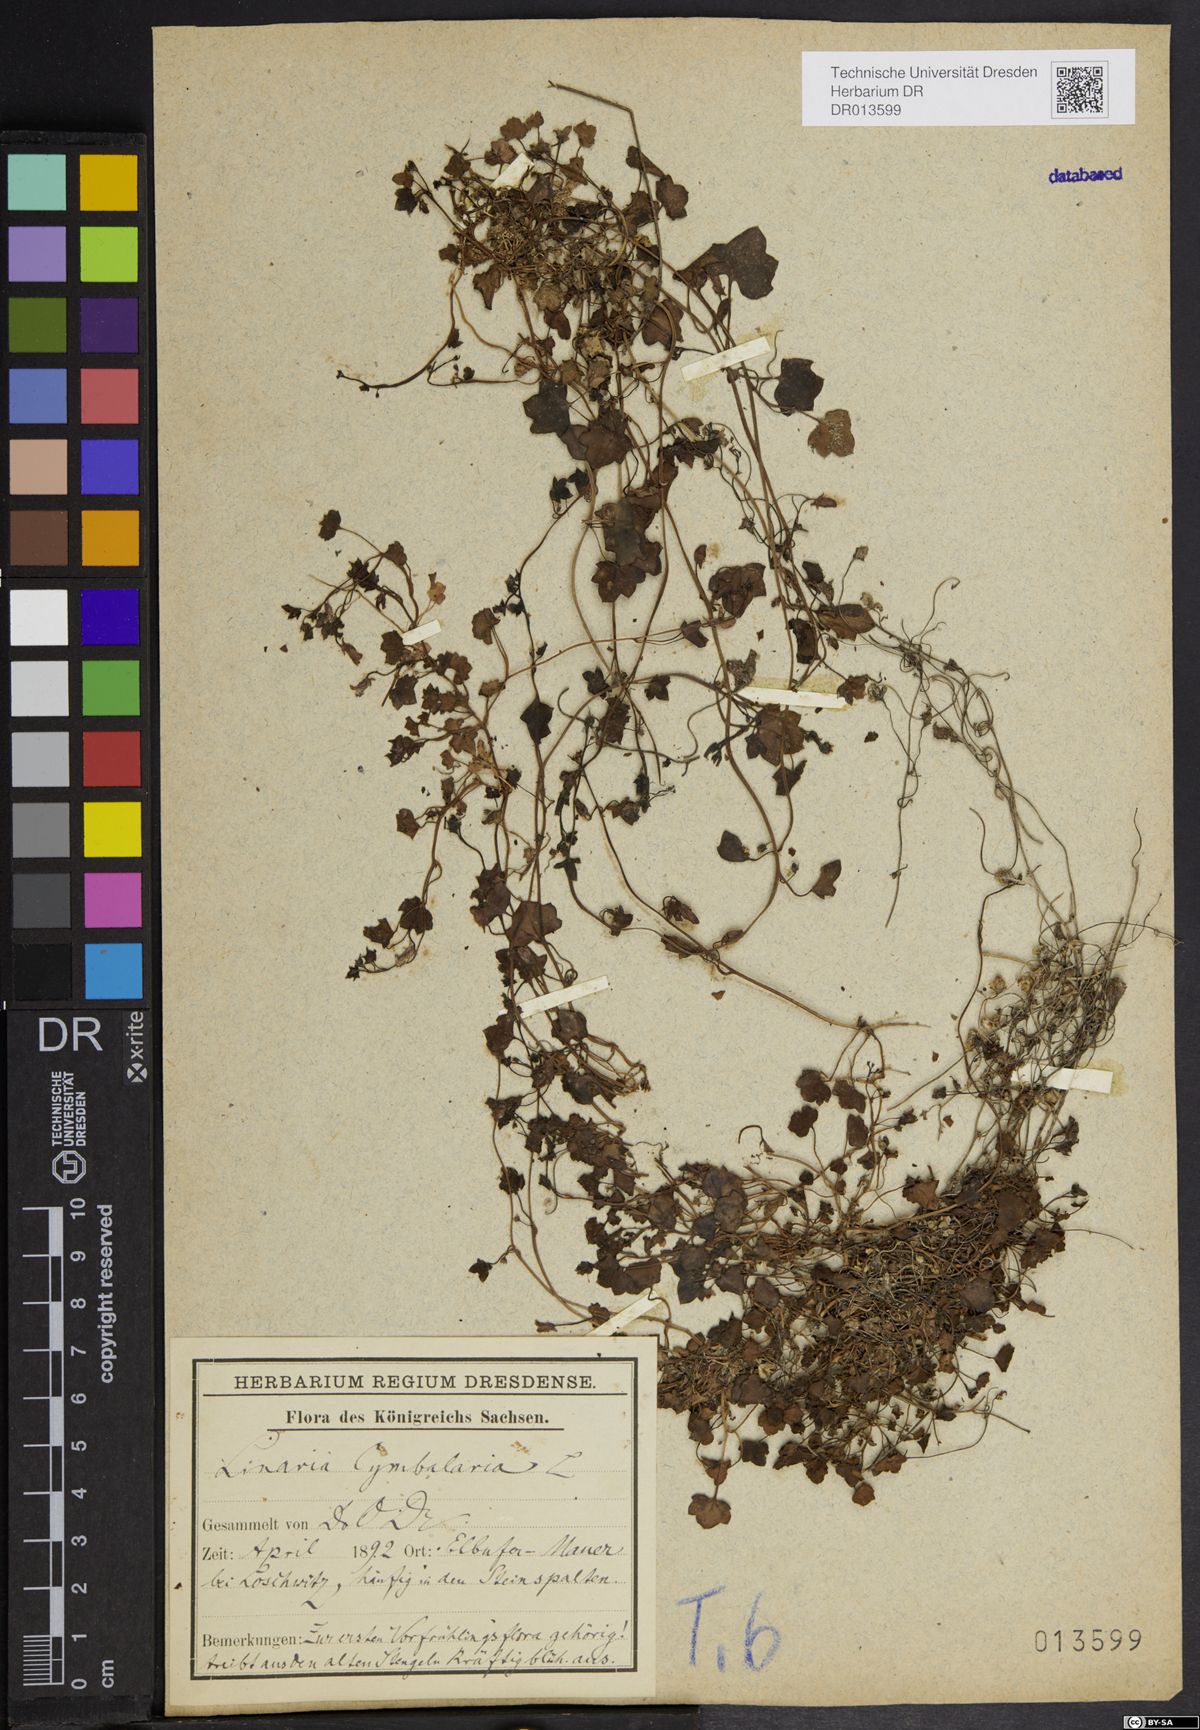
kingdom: Plantae
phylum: Tracheophyta
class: Magnoliopsida
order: Lamiales
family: Plantaginaceae
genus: Cymbalaria
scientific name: Cymbalaria muralis
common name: Ivy-leaved toadflax
